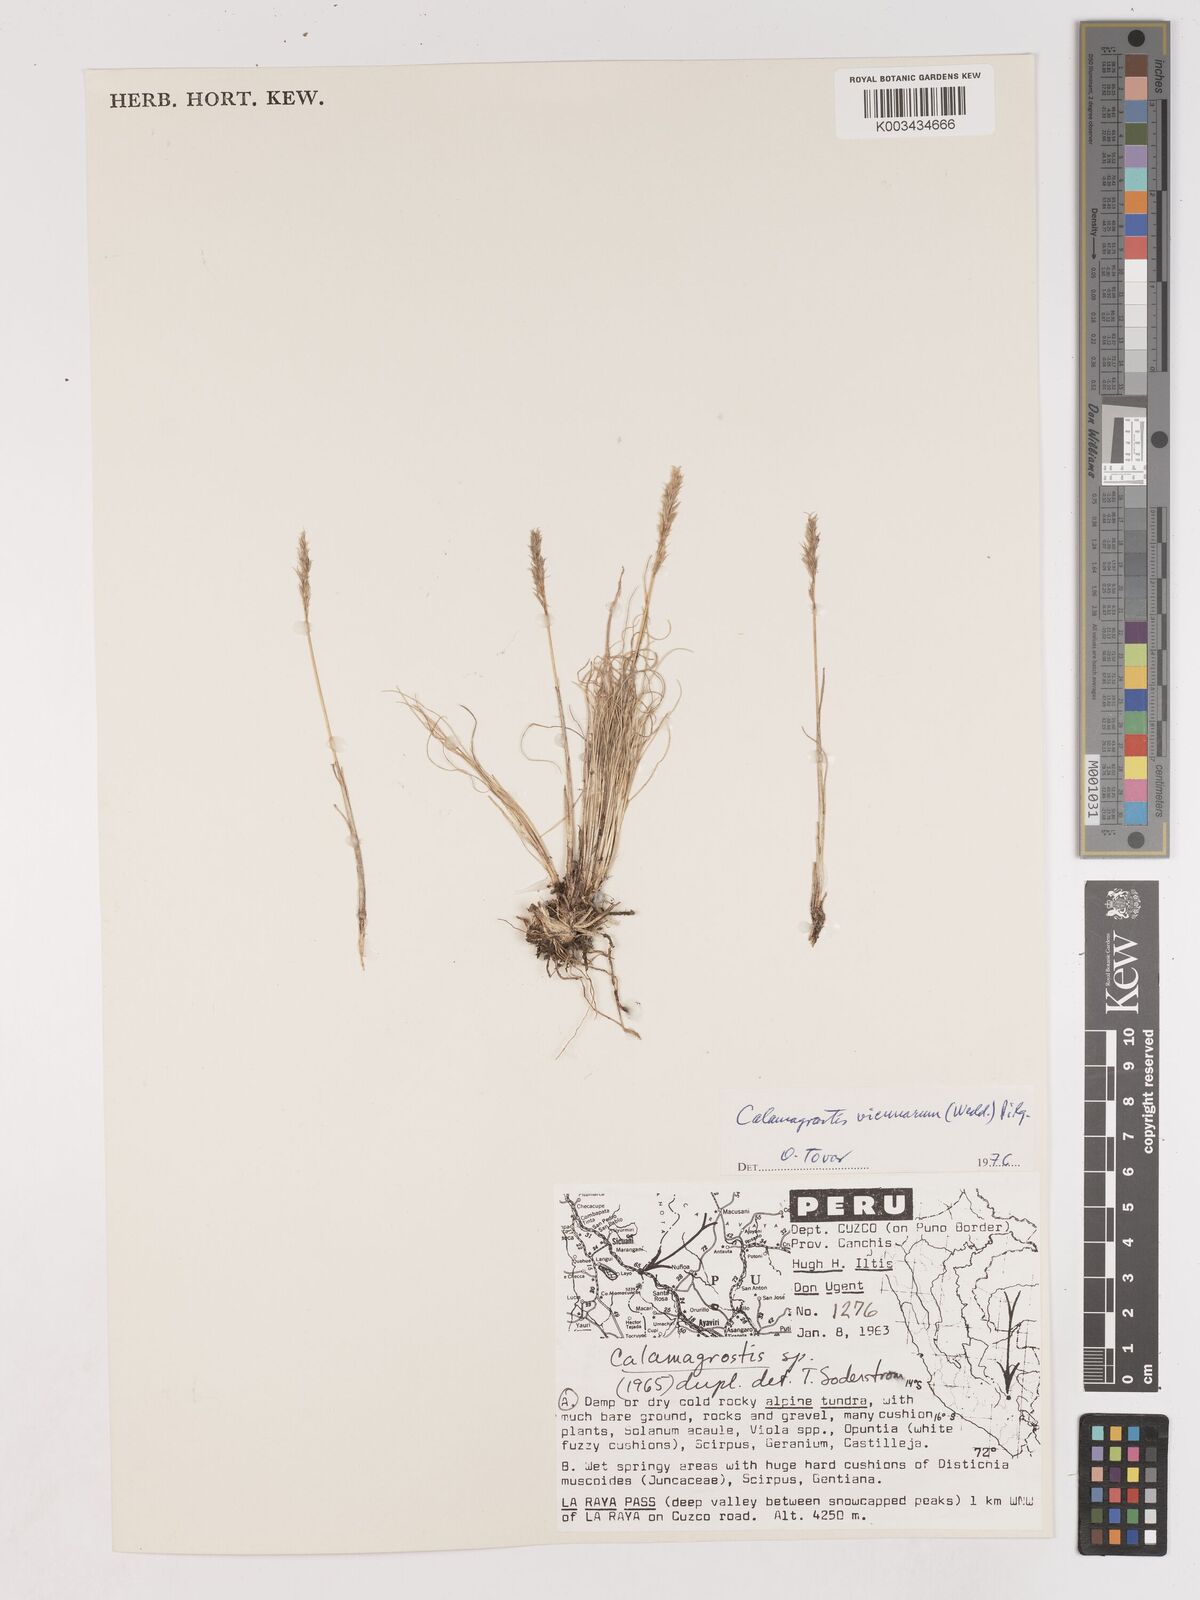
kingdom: Plantae
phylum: Tracheophyta
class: Liliopsida
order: Poales
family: Poaceae
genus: Cinnagrostis
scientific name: Cinnagrostis vicunarum
